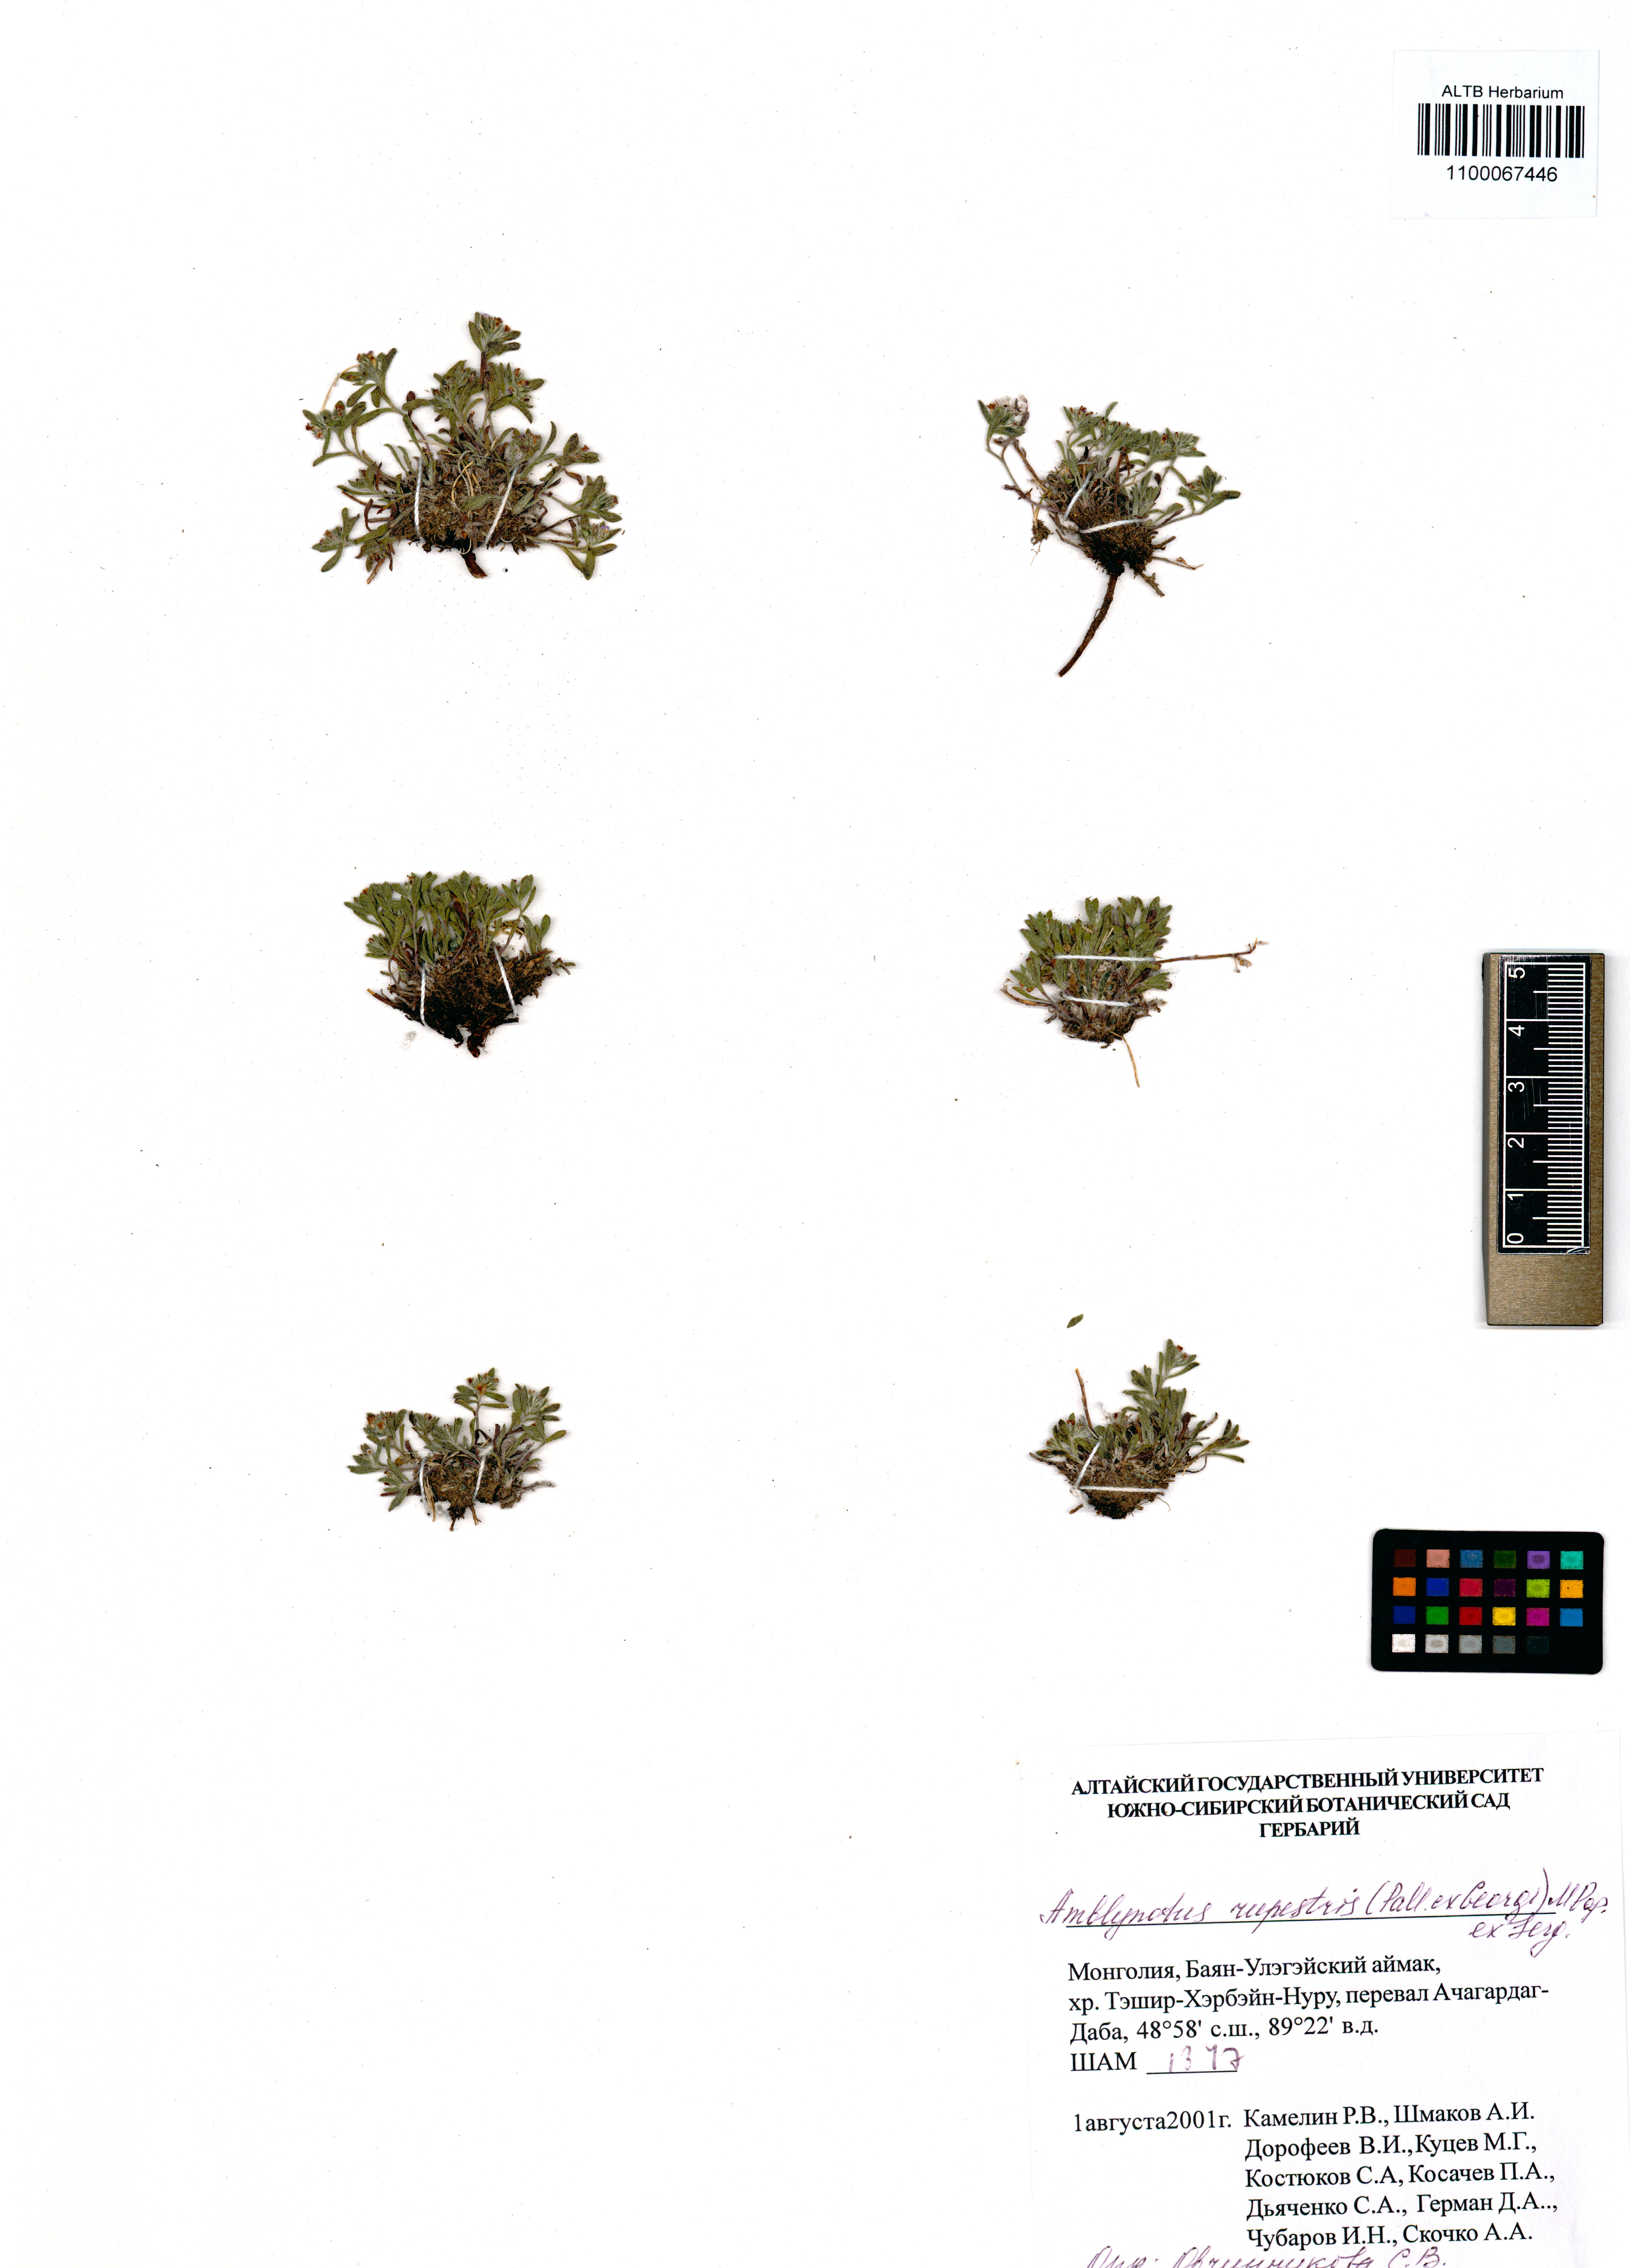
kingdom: Plantae
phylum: Tracheophyta
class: Magnoliopsida
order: Boraginales
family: Boraginaceae
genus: Eritrichium
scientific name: Eritrichium rupestre
